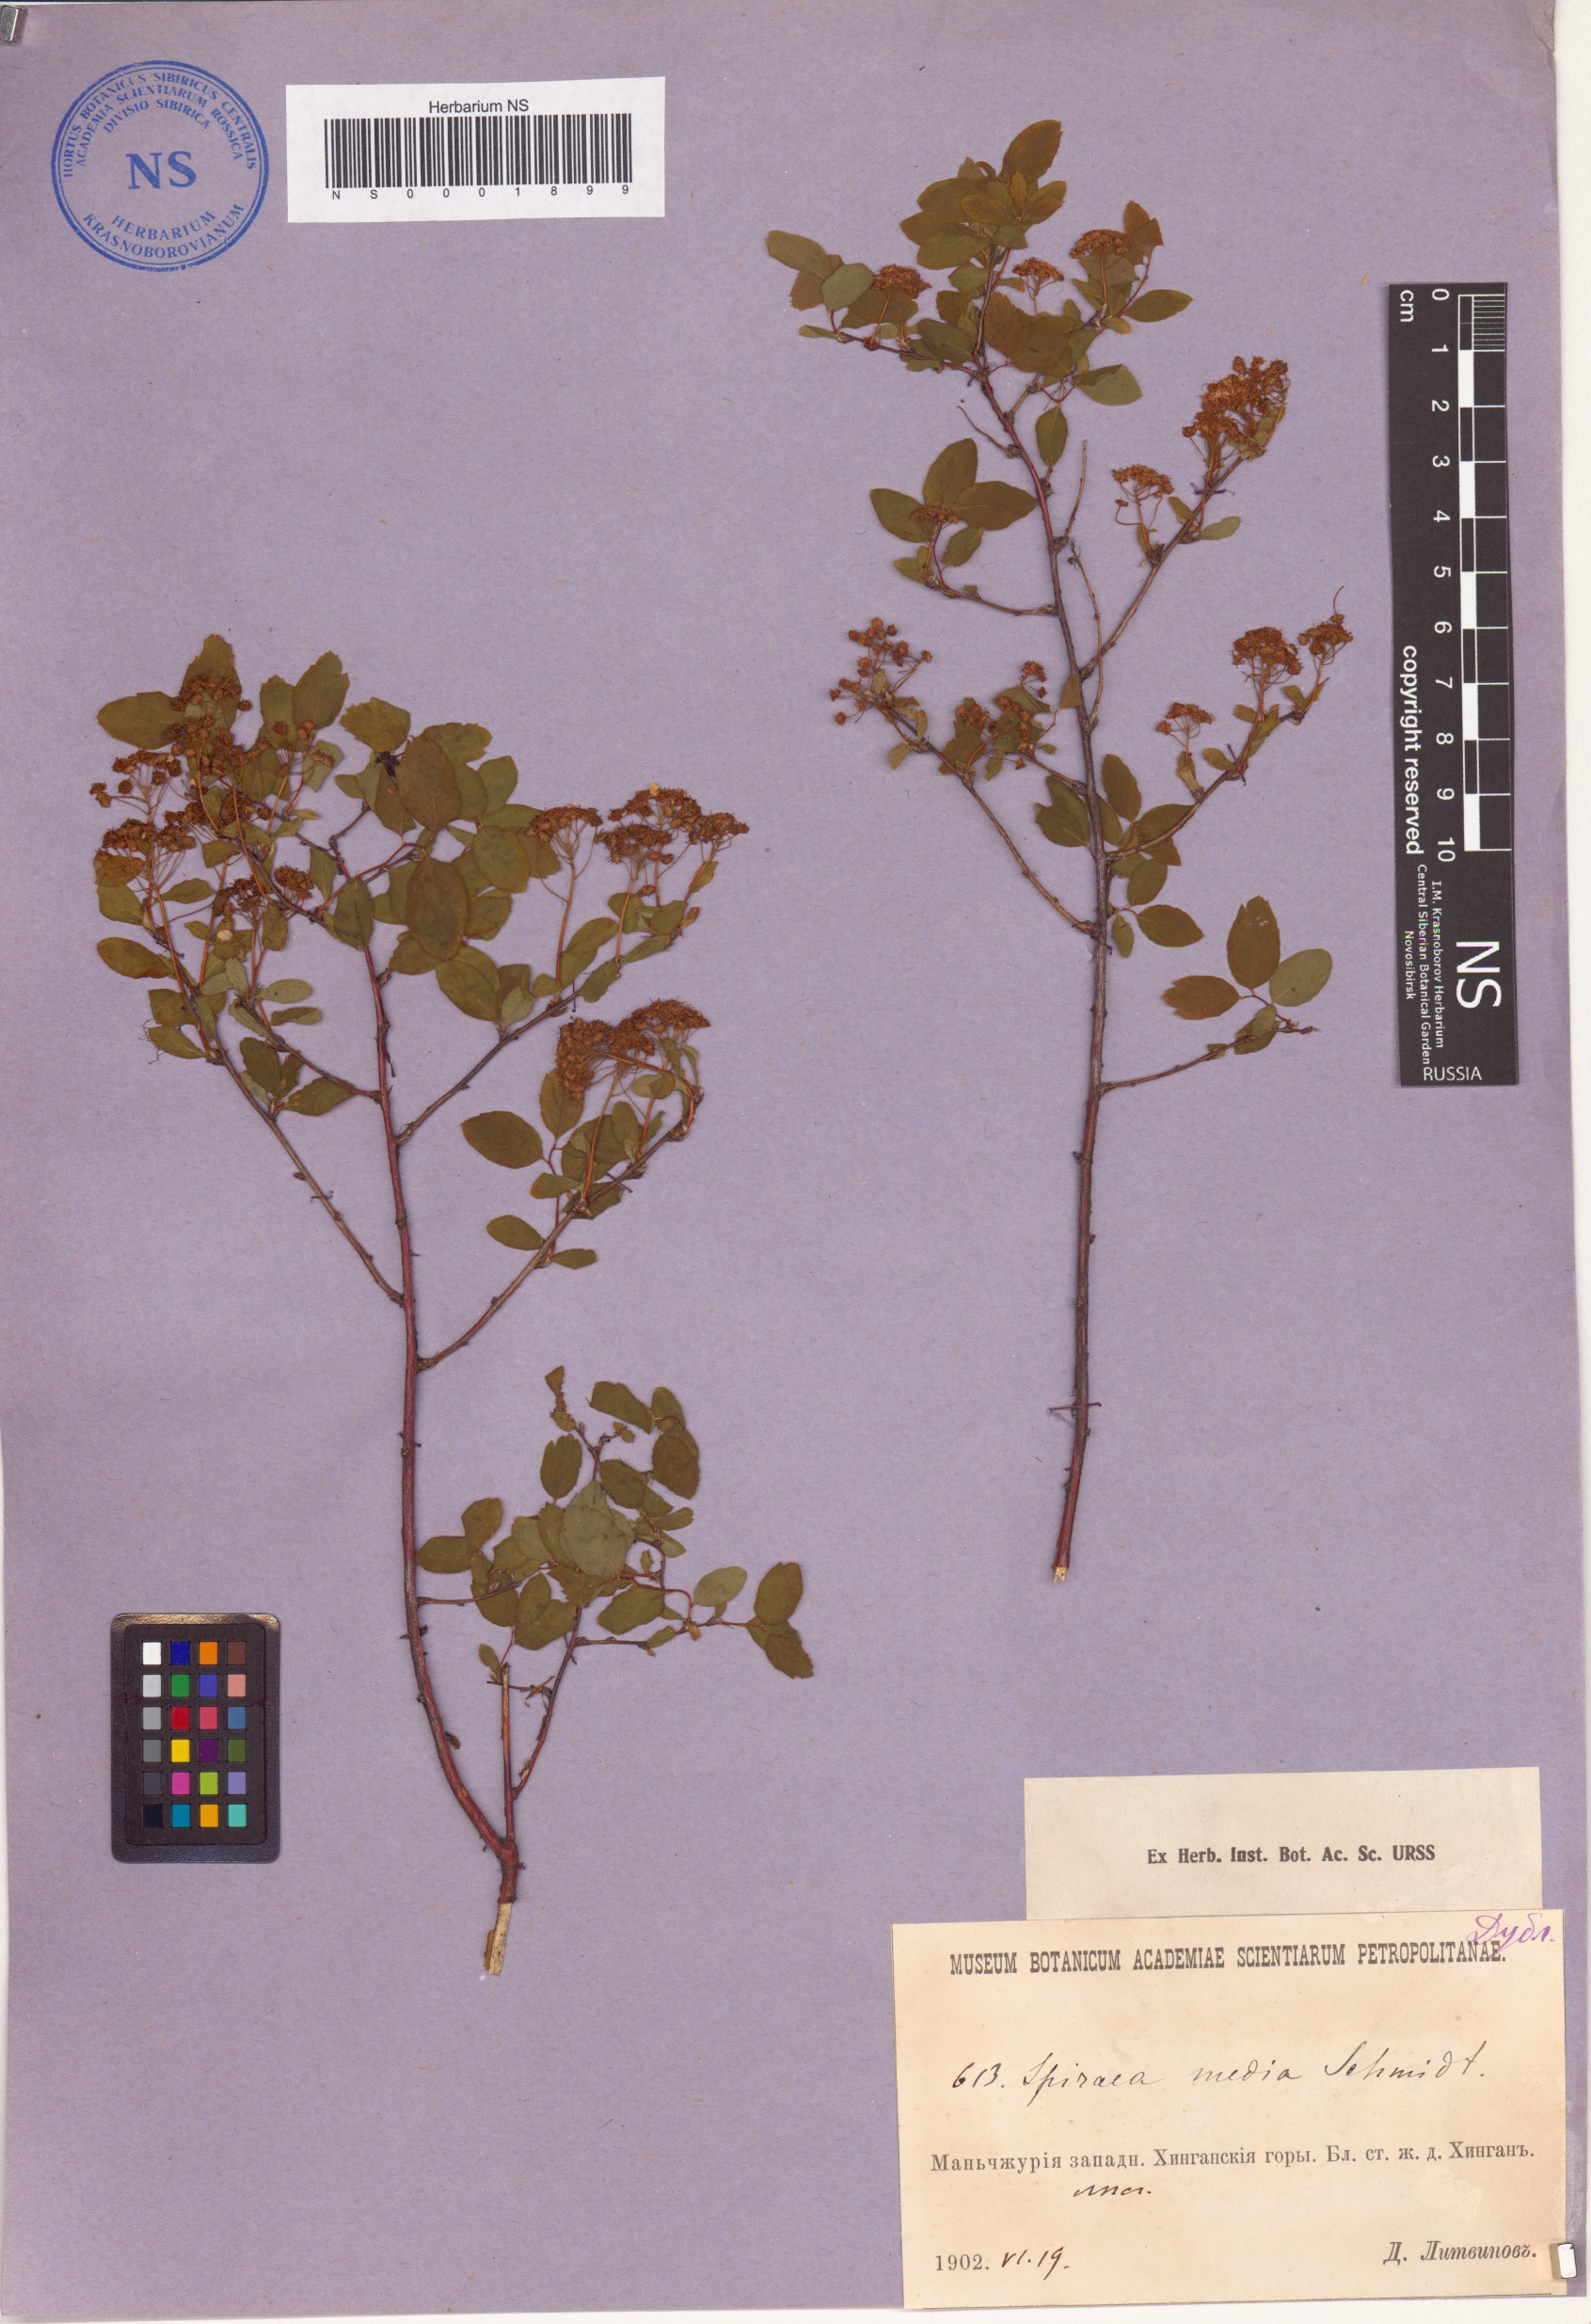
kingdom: Plantae
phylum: Tracheophyta
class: Magnoliopsida
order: Rosales
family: Rosaceae
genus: Spiraea
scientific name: Spiraea media
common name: Russian spiraea
